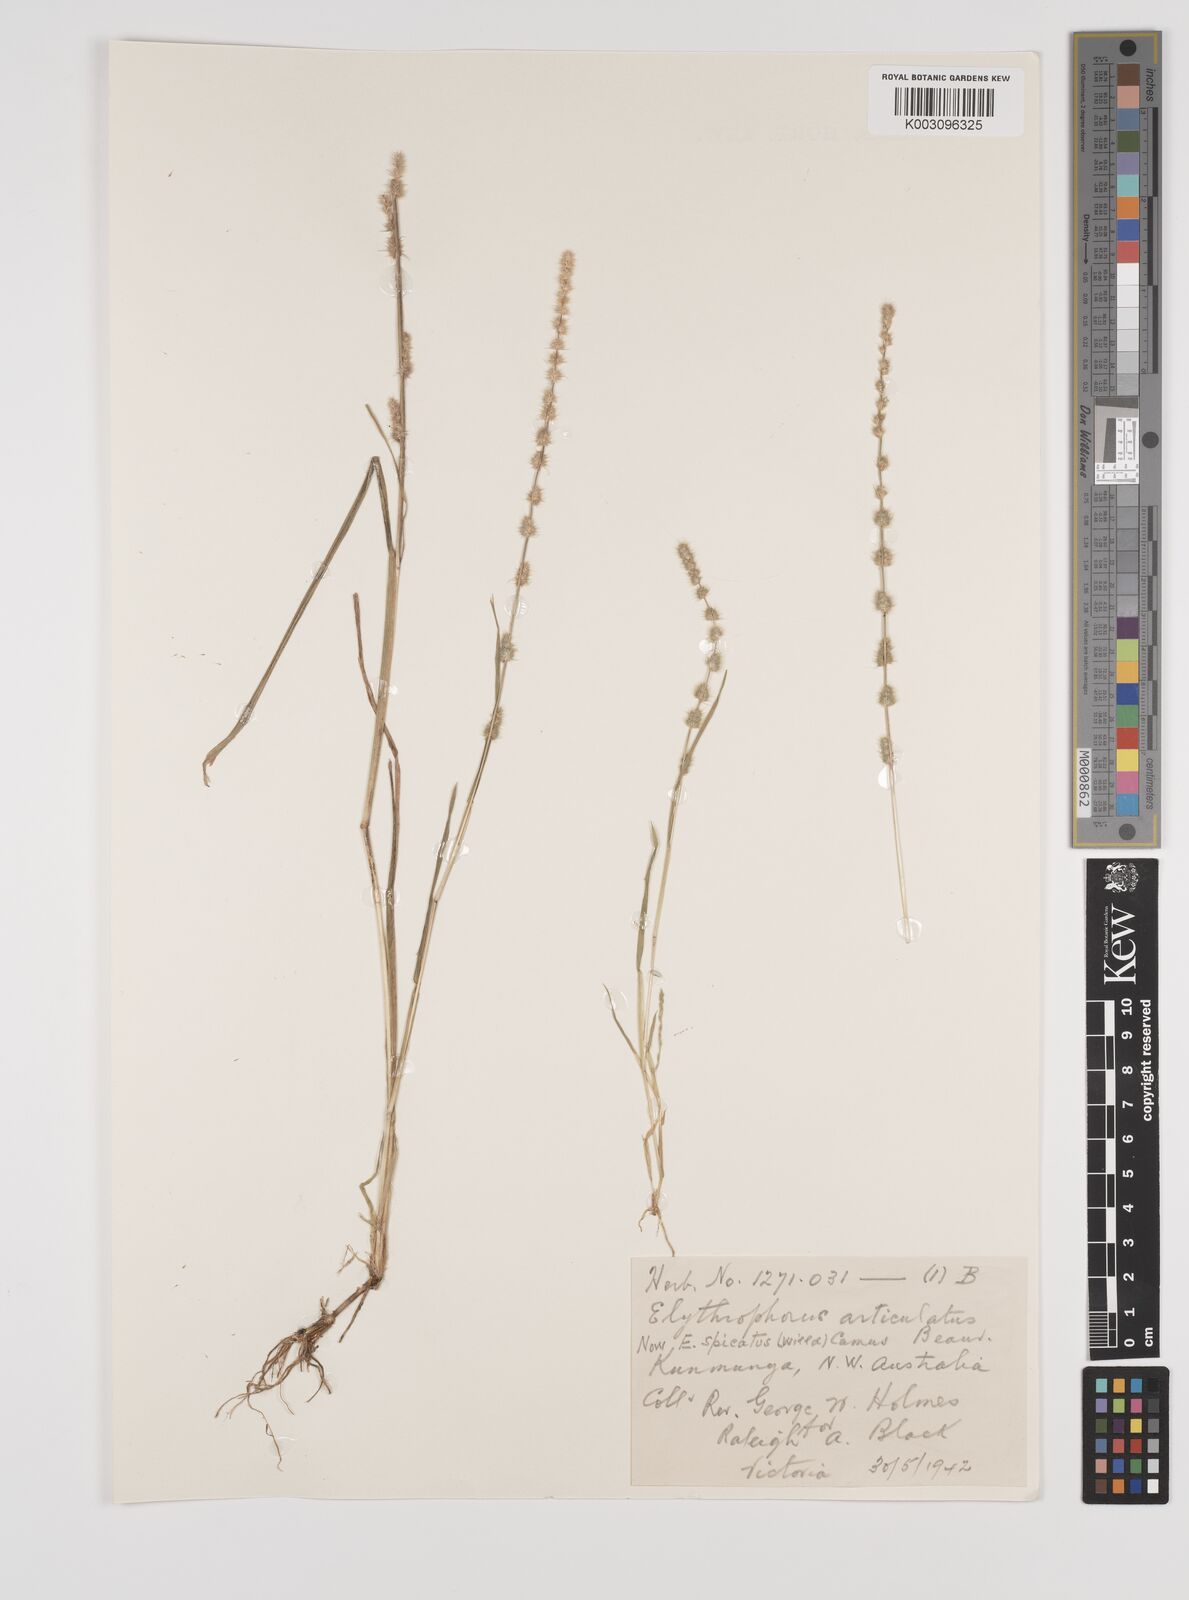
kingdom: Plantae
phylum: Tracheophyta
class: Liliopsida
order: Poales
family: Poaceae
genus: Elytrophorus
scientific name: Elytrophorus spicatus
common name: Spike grass
